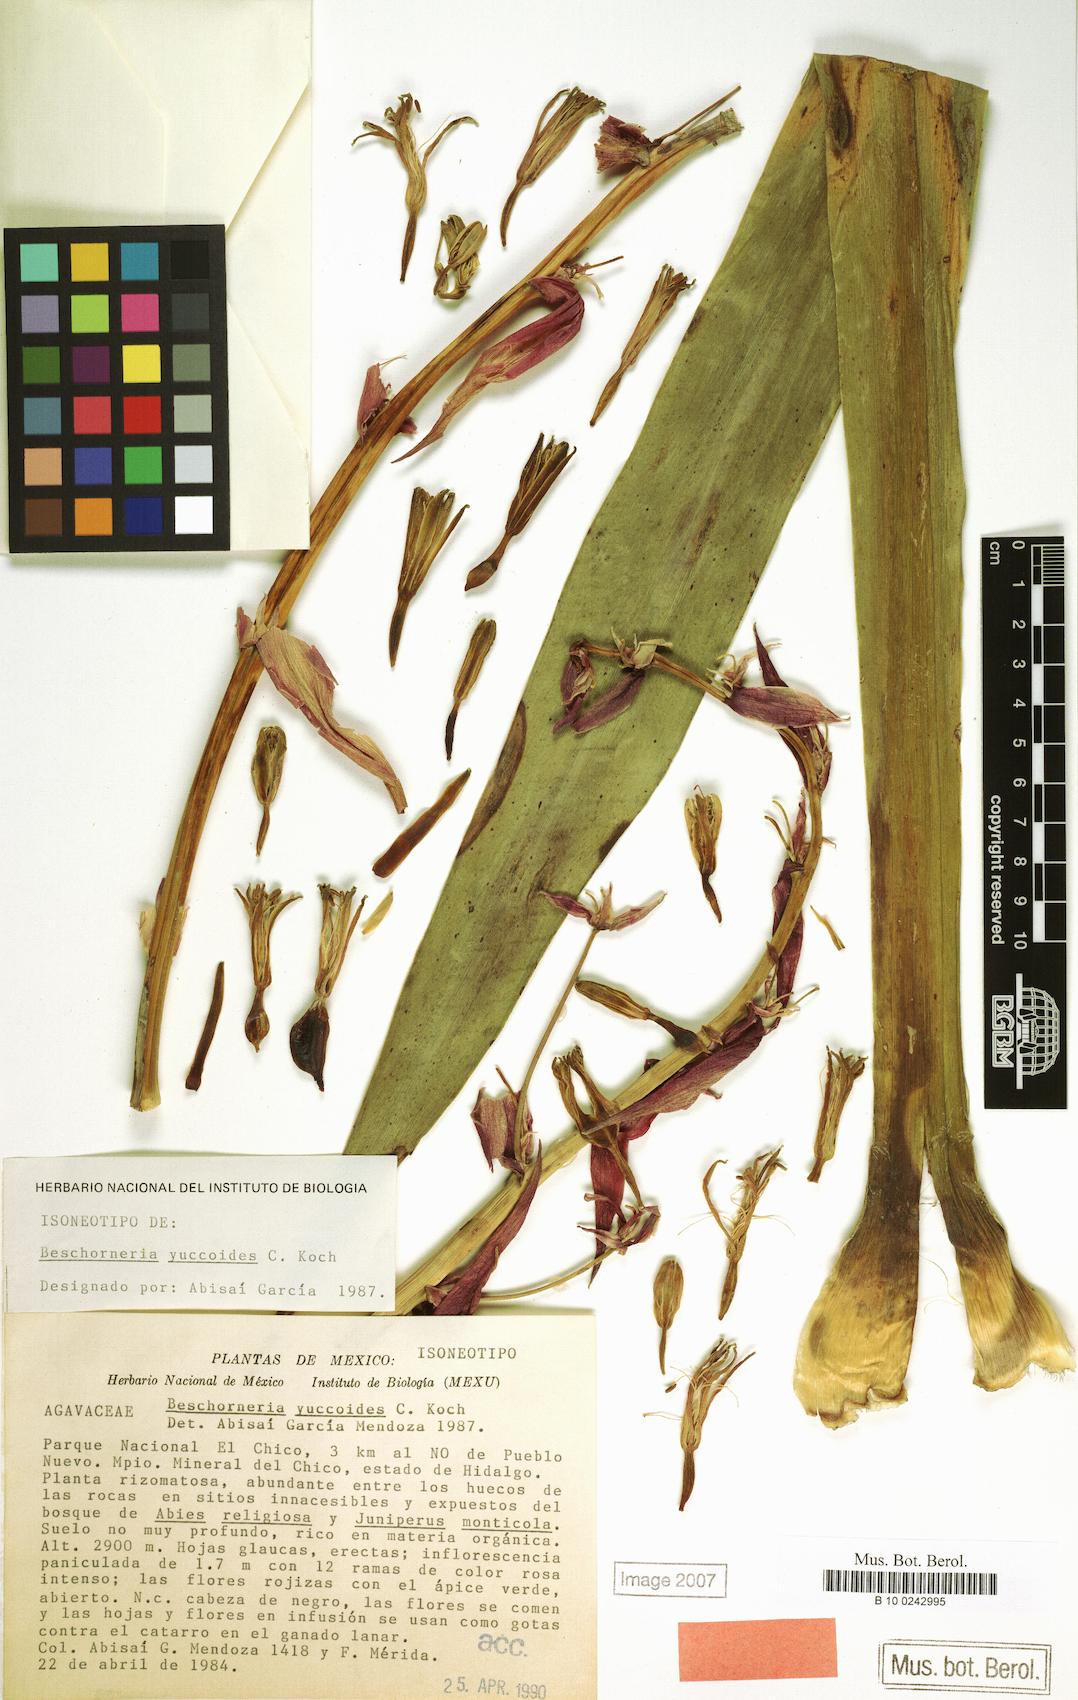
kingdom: Plantae
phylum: Tracheophyta
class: Liliopsida
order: Asparagales
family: Asparagaceae
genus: Beschorneria
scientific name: Beschorneria yuccoides
